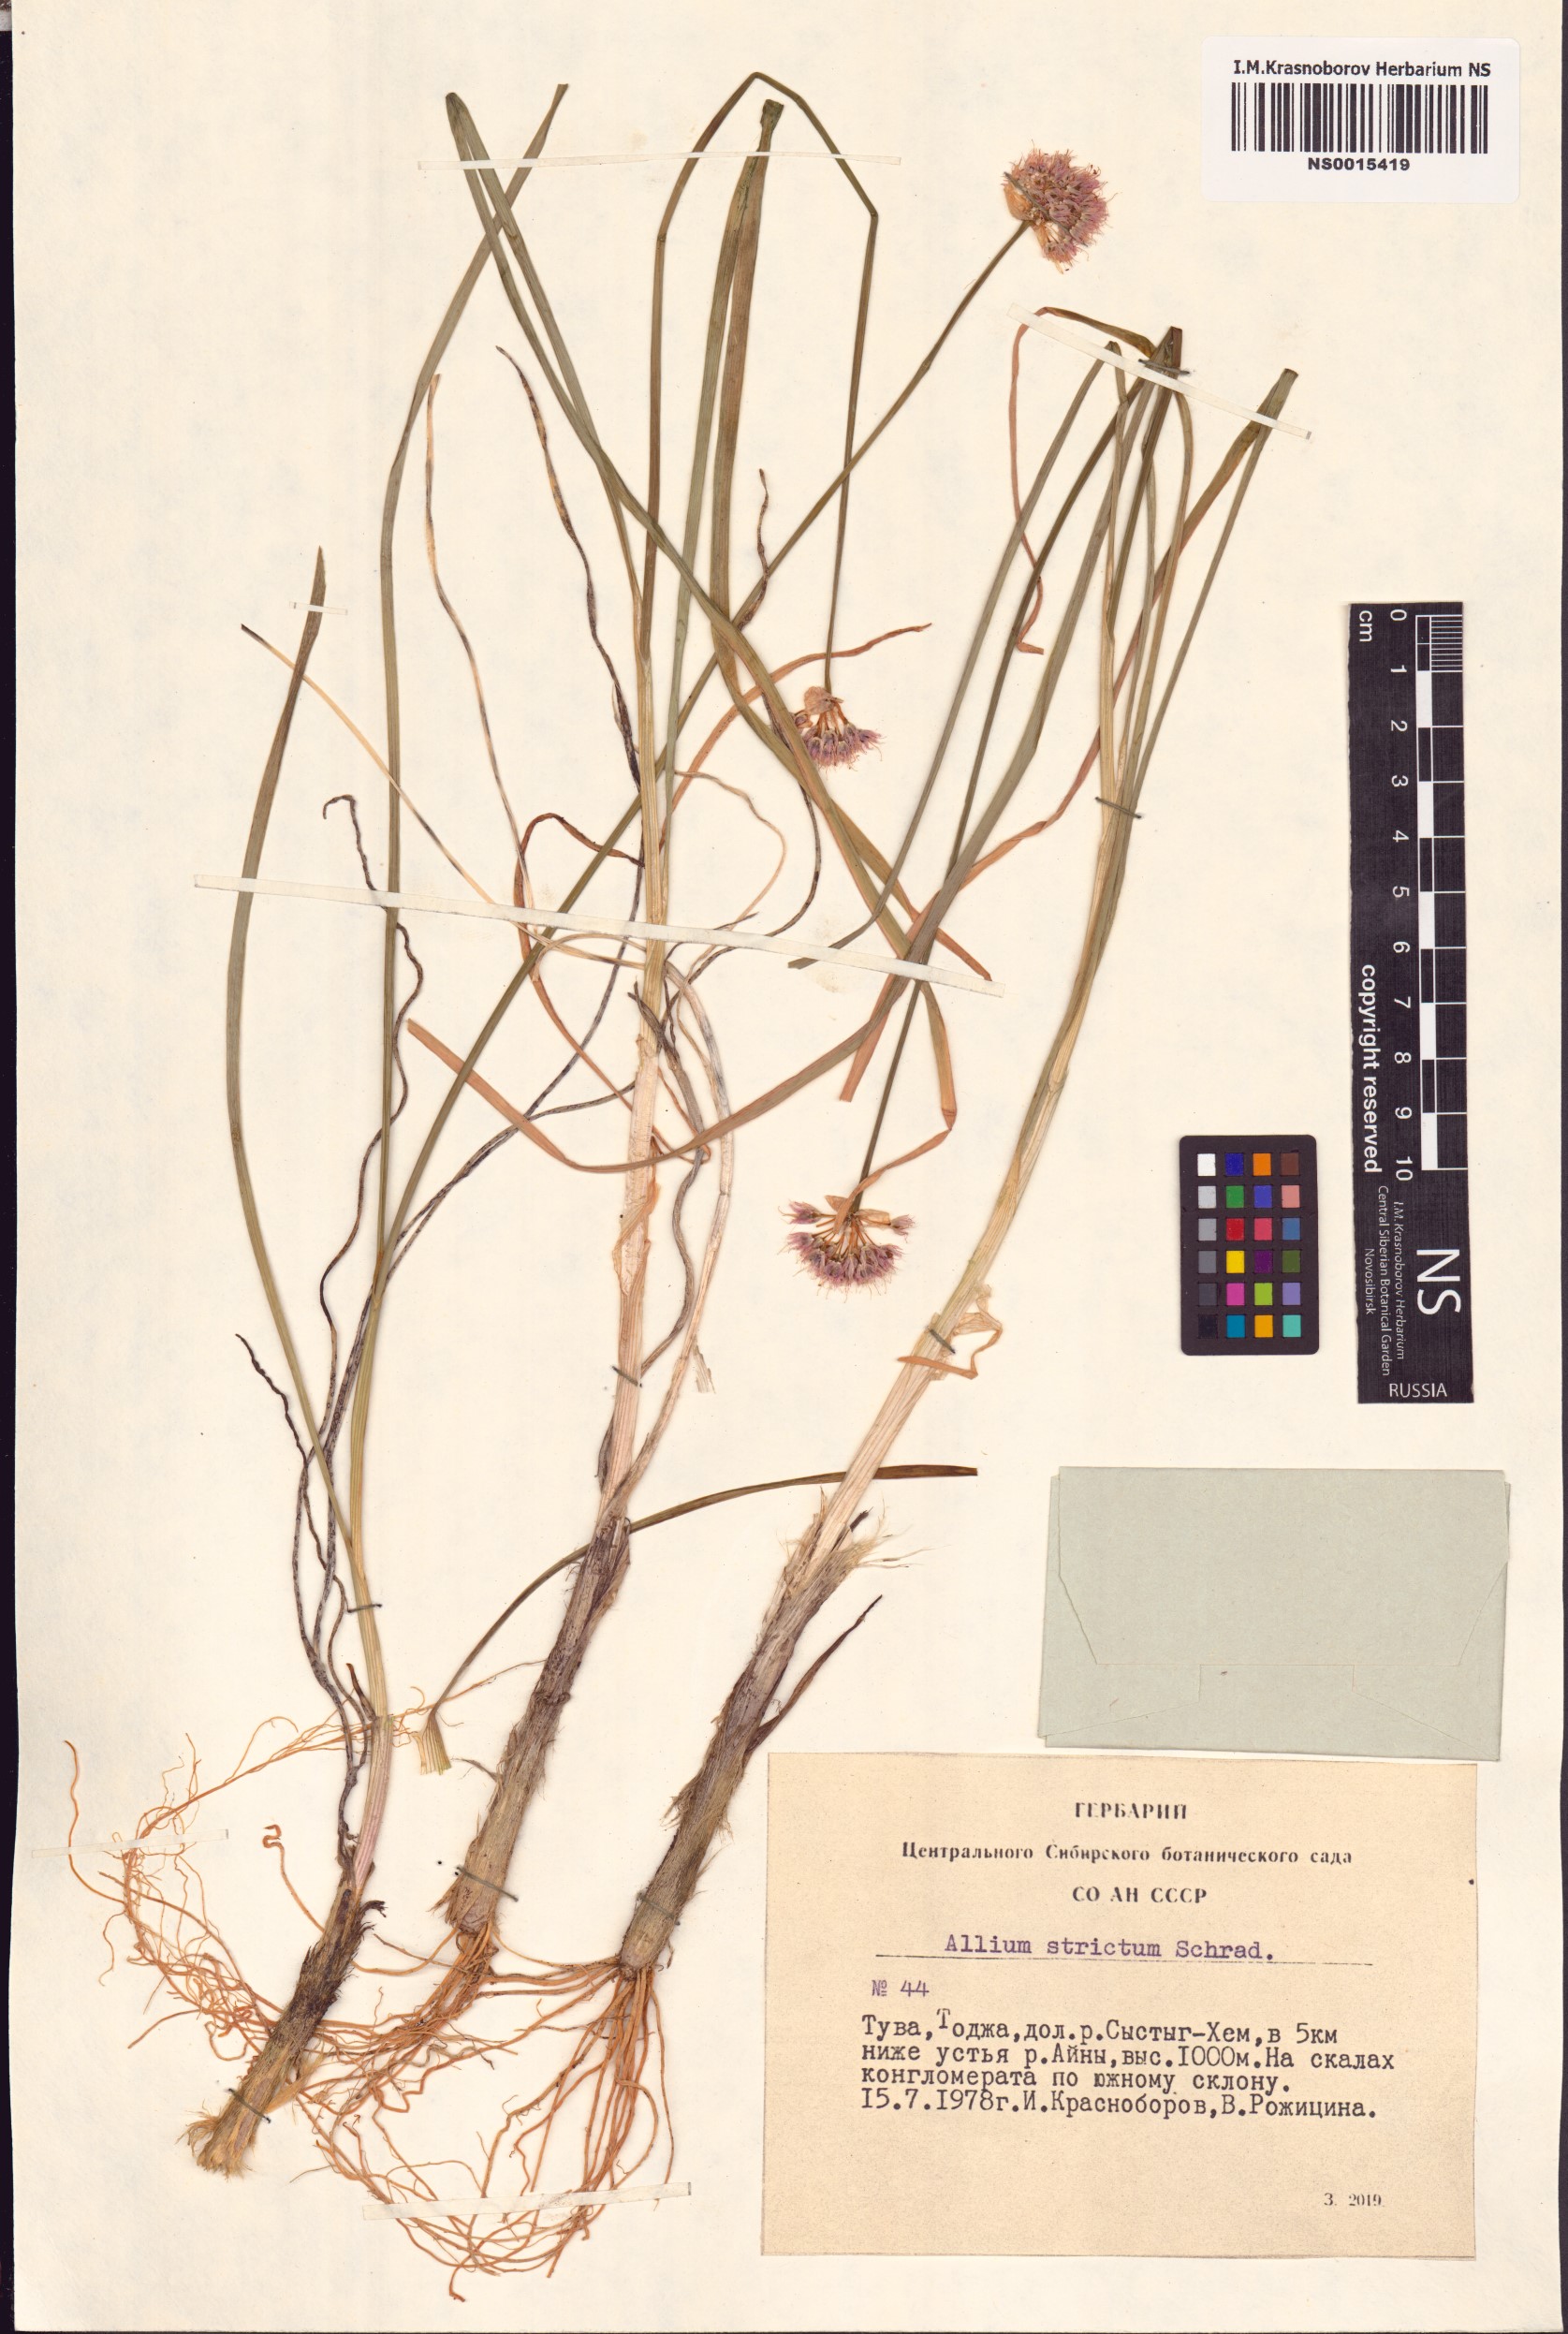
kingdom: Plantae
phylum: Tracheophyta
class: Liliopsida
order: Asparagales
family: Amaryllidaceae
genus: Allium
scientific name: Allium strictum
